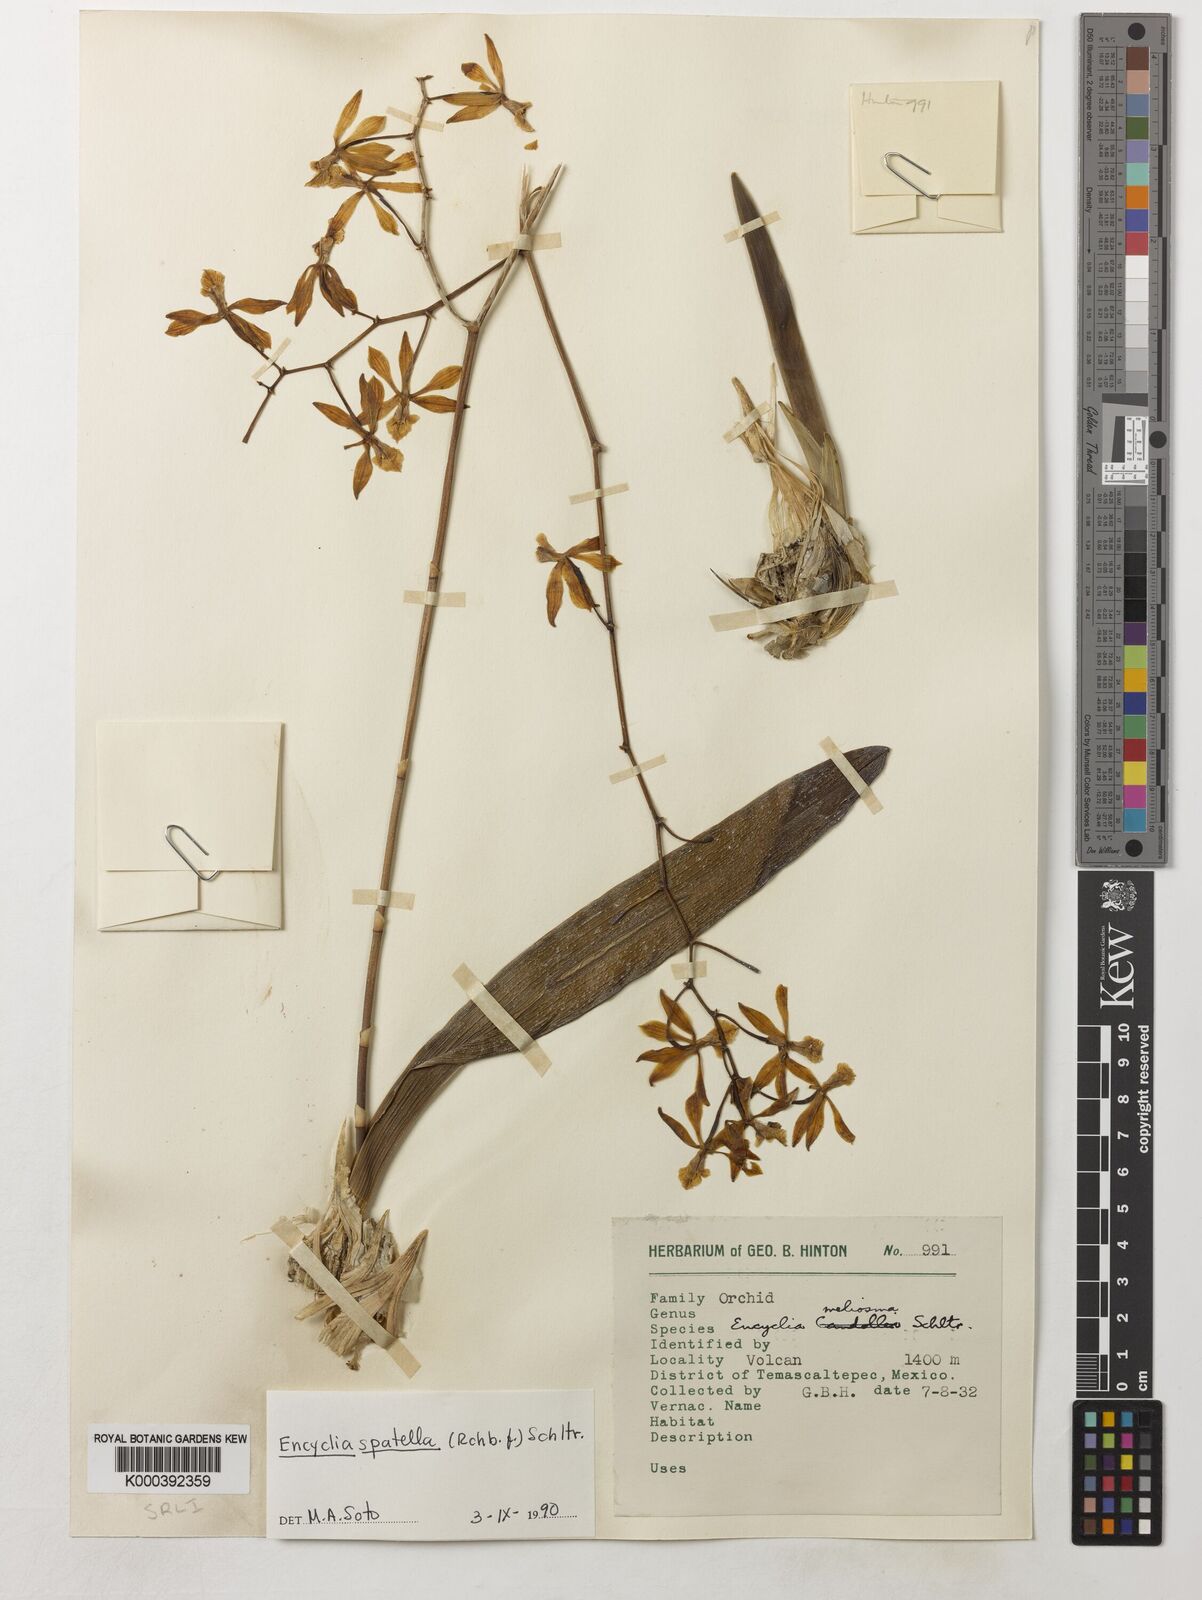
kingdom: Plantae
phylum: Tracheophyta
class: Liliopsida
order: Asparagales
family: Orchidaceae
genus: Encyclia
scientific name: Encyclia spatella
